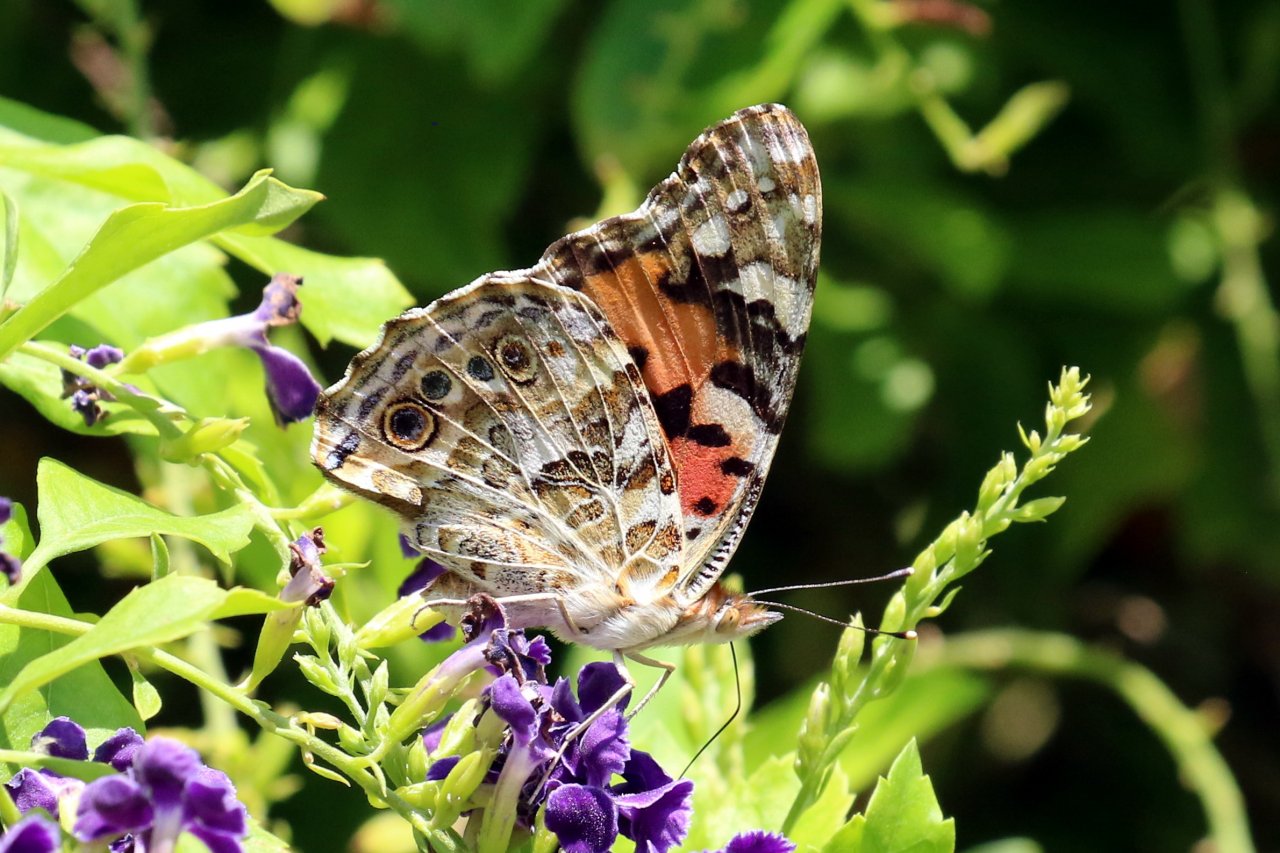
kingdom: Animalia
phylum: Arthropoda
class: Insecta
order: Lepidoptera
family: Nymphalidae
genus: Vanessa
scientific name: Vanessa cardui
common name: Painted Lady
